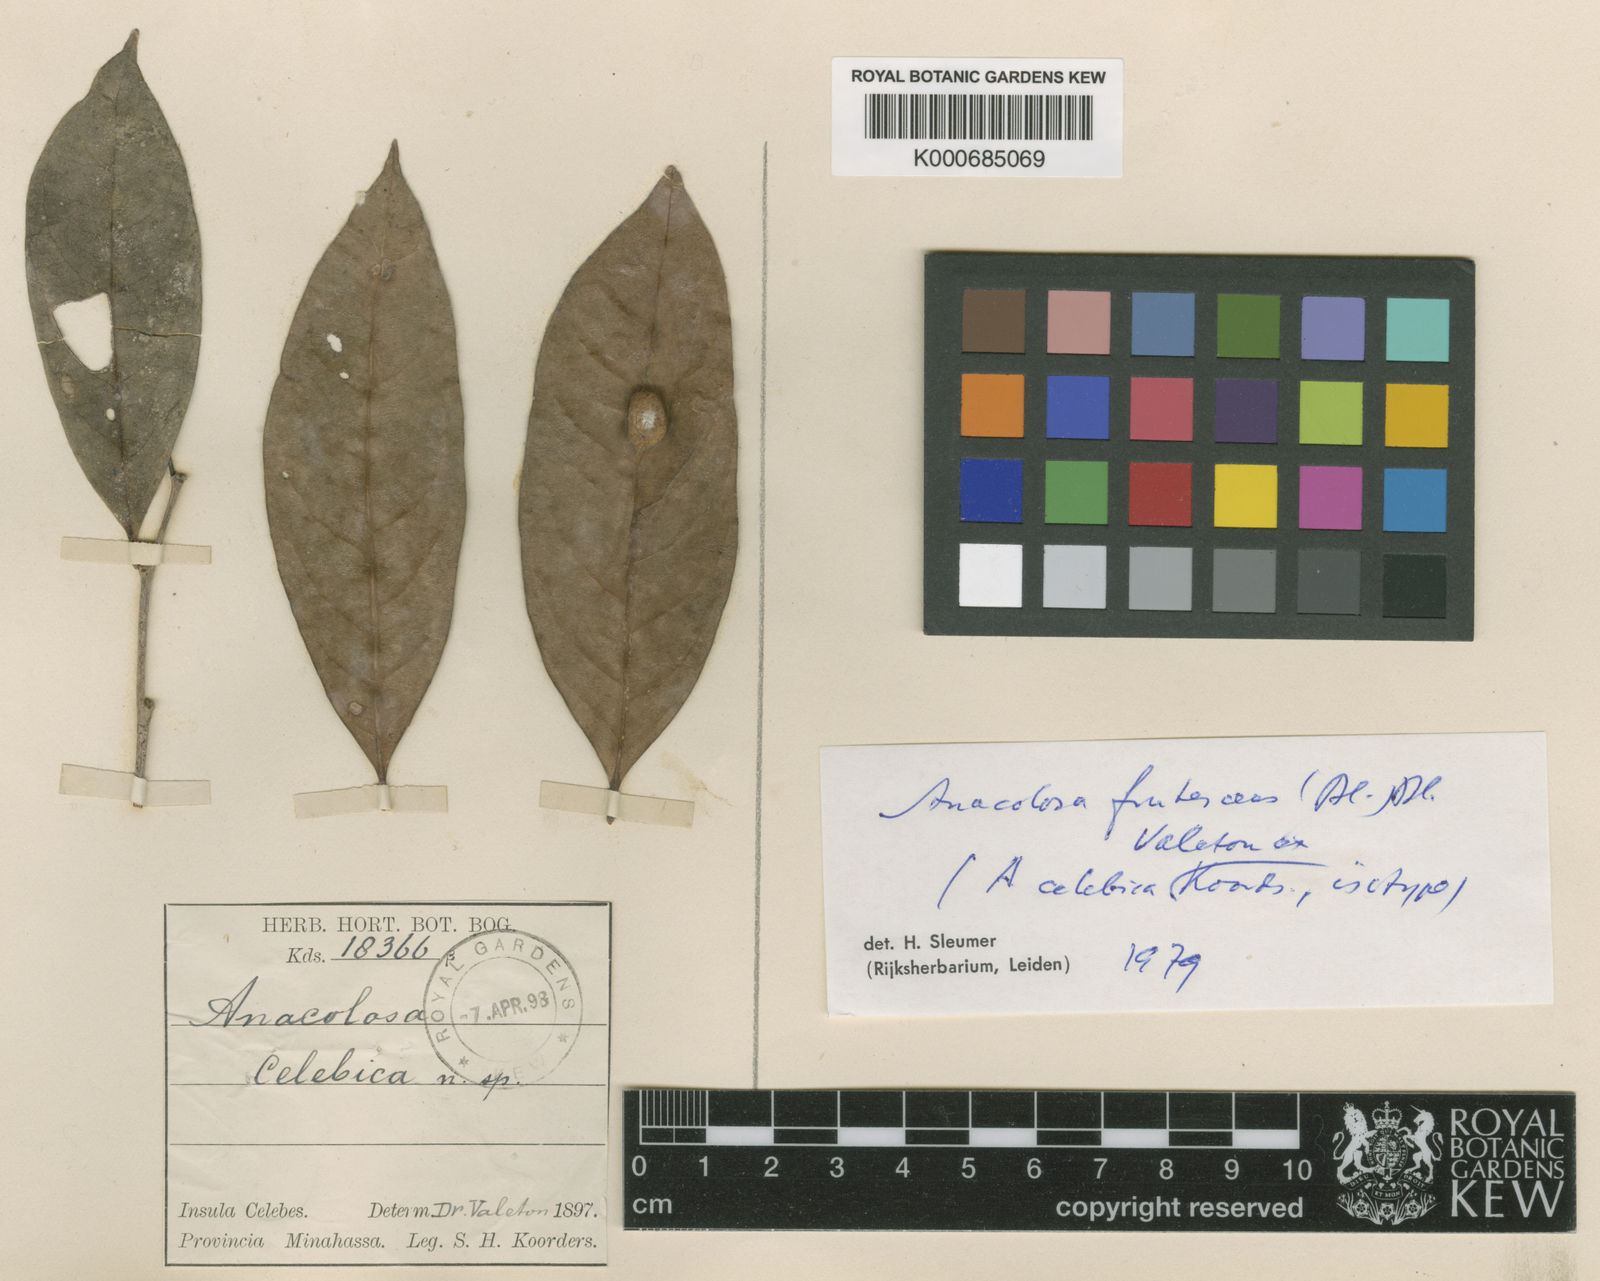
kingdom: Plantae
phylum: Tracheophyta
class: Magnoliopsida
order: Santalales
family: Aptandraceae
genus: Anacolosa
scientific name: Anacolosa frutescens
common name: Galo nut
